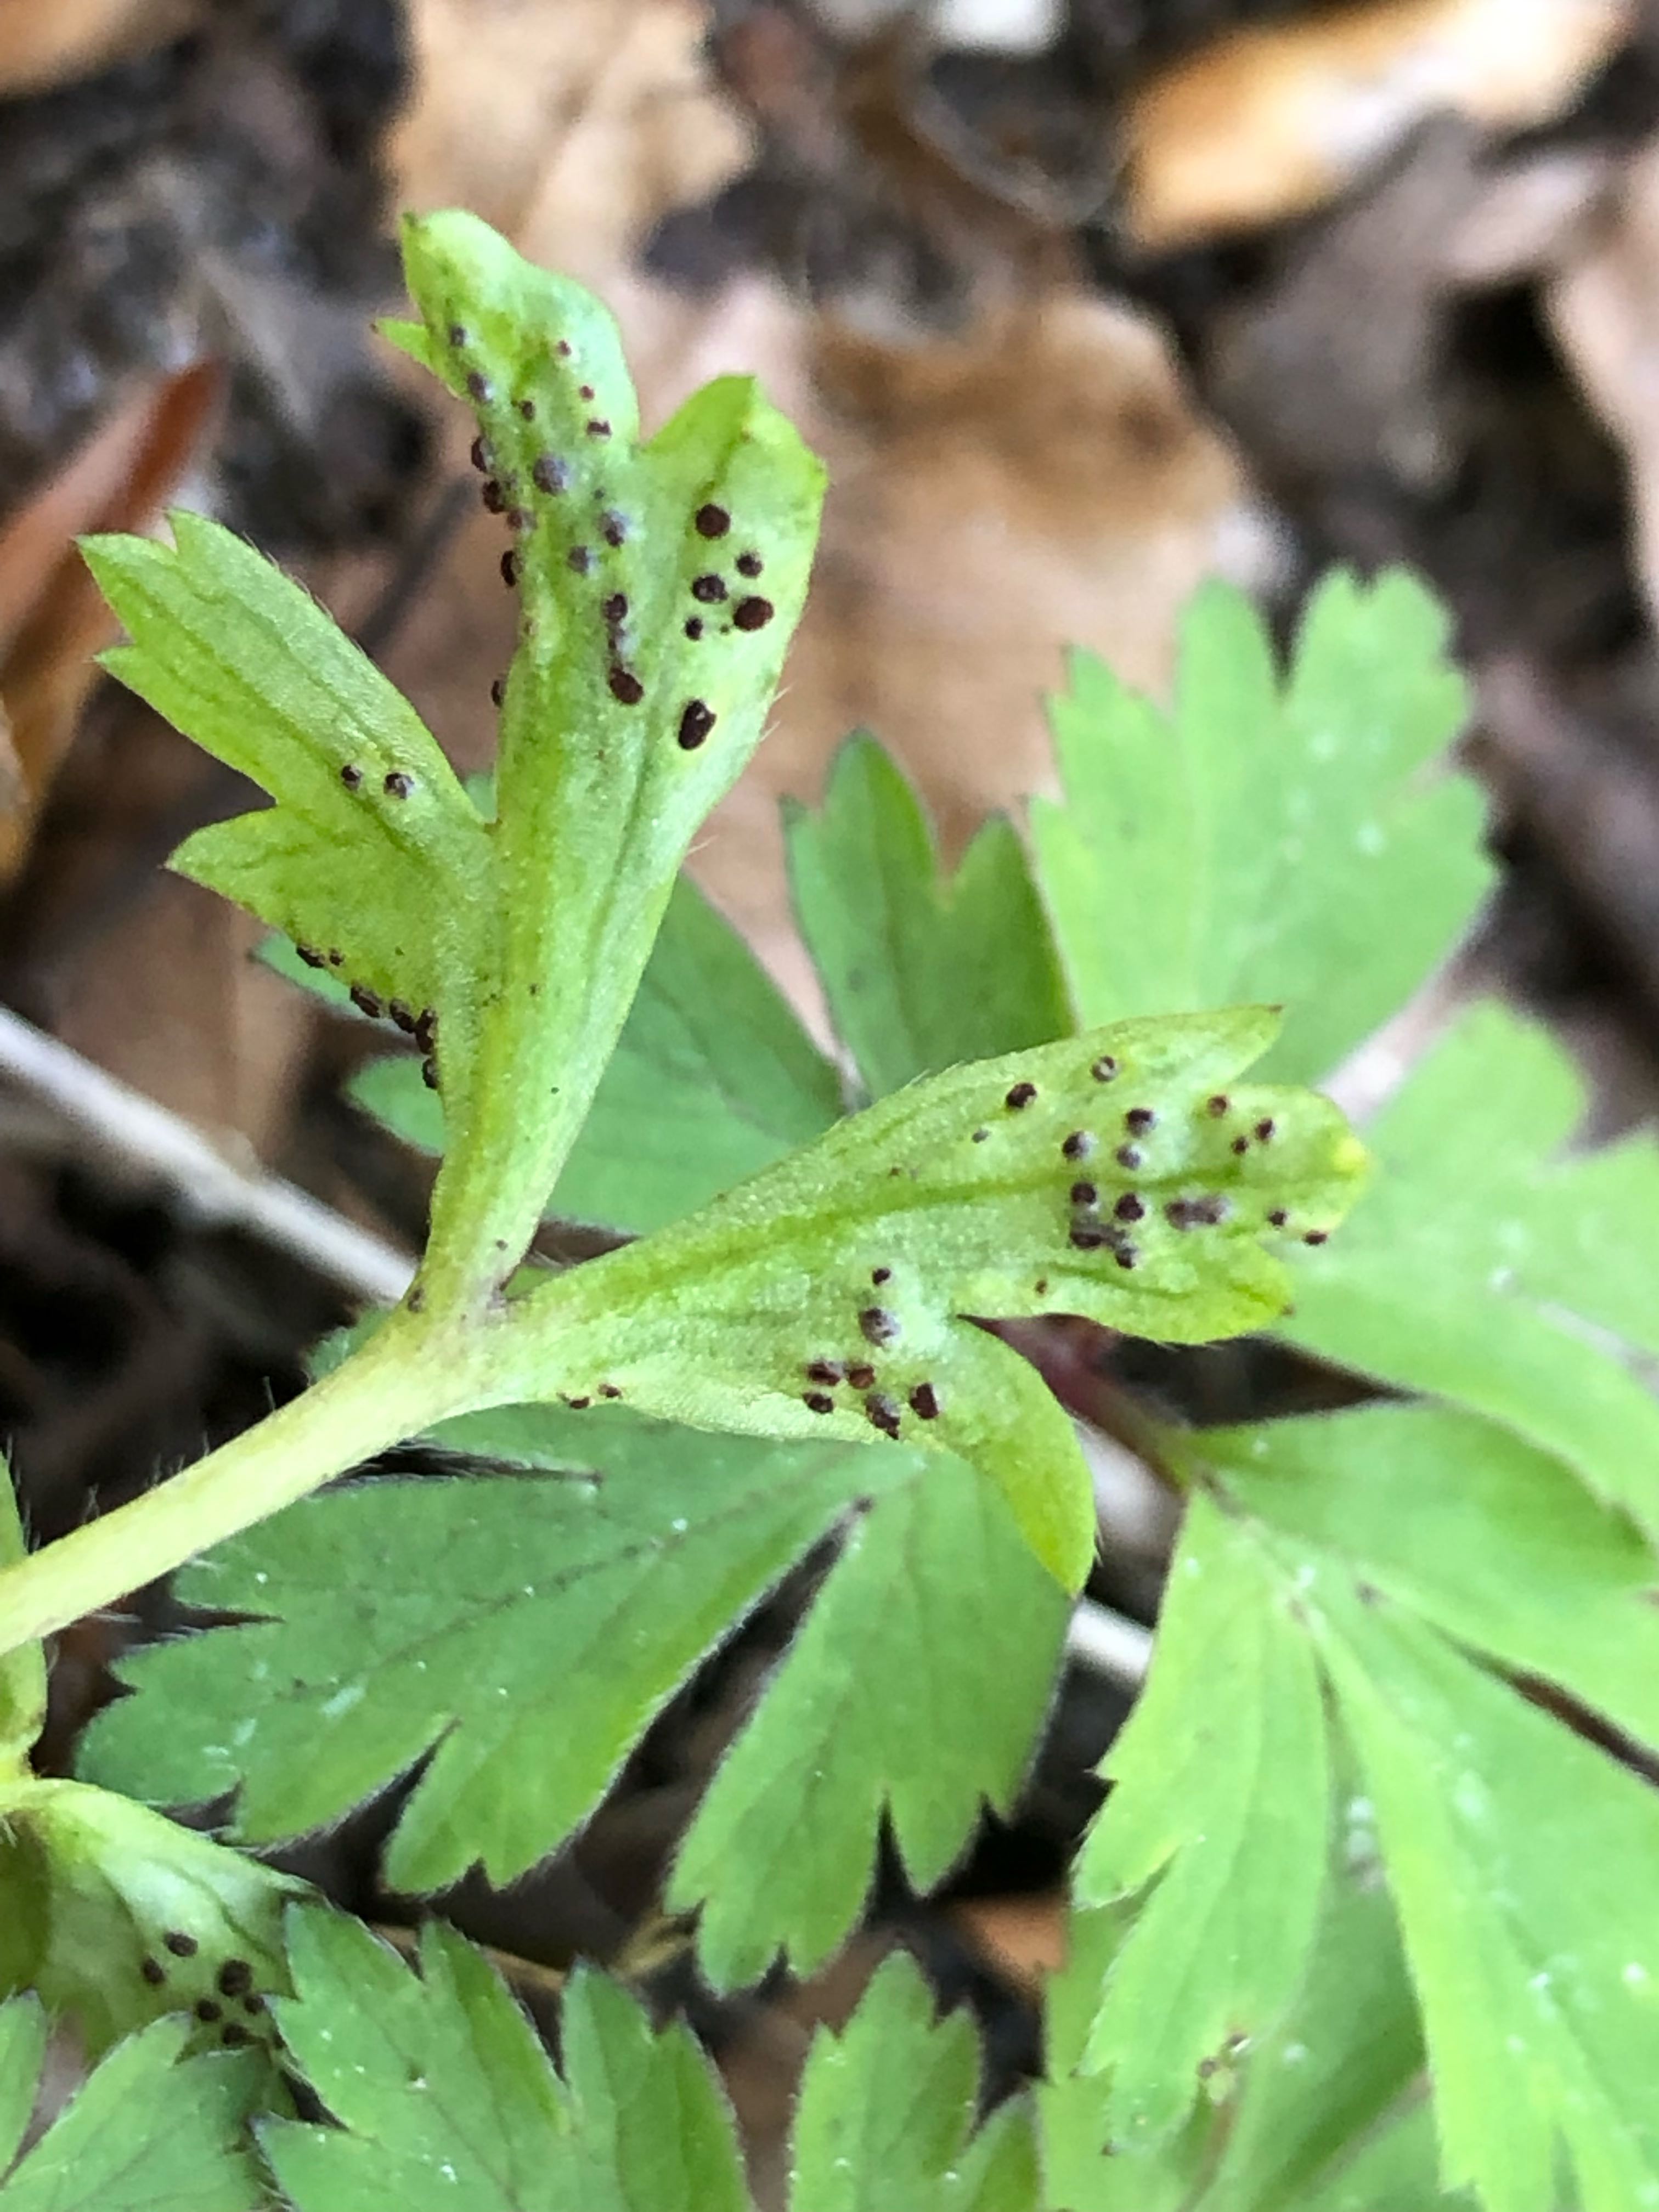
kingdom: Fungi
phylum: Basidiomycota
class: Pucciniomycetes
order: Pucciniales
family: Tranzscheliaceae
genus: Tranzschelia
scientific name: Tranzschelia anemones
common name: anemone-knæksporerust
